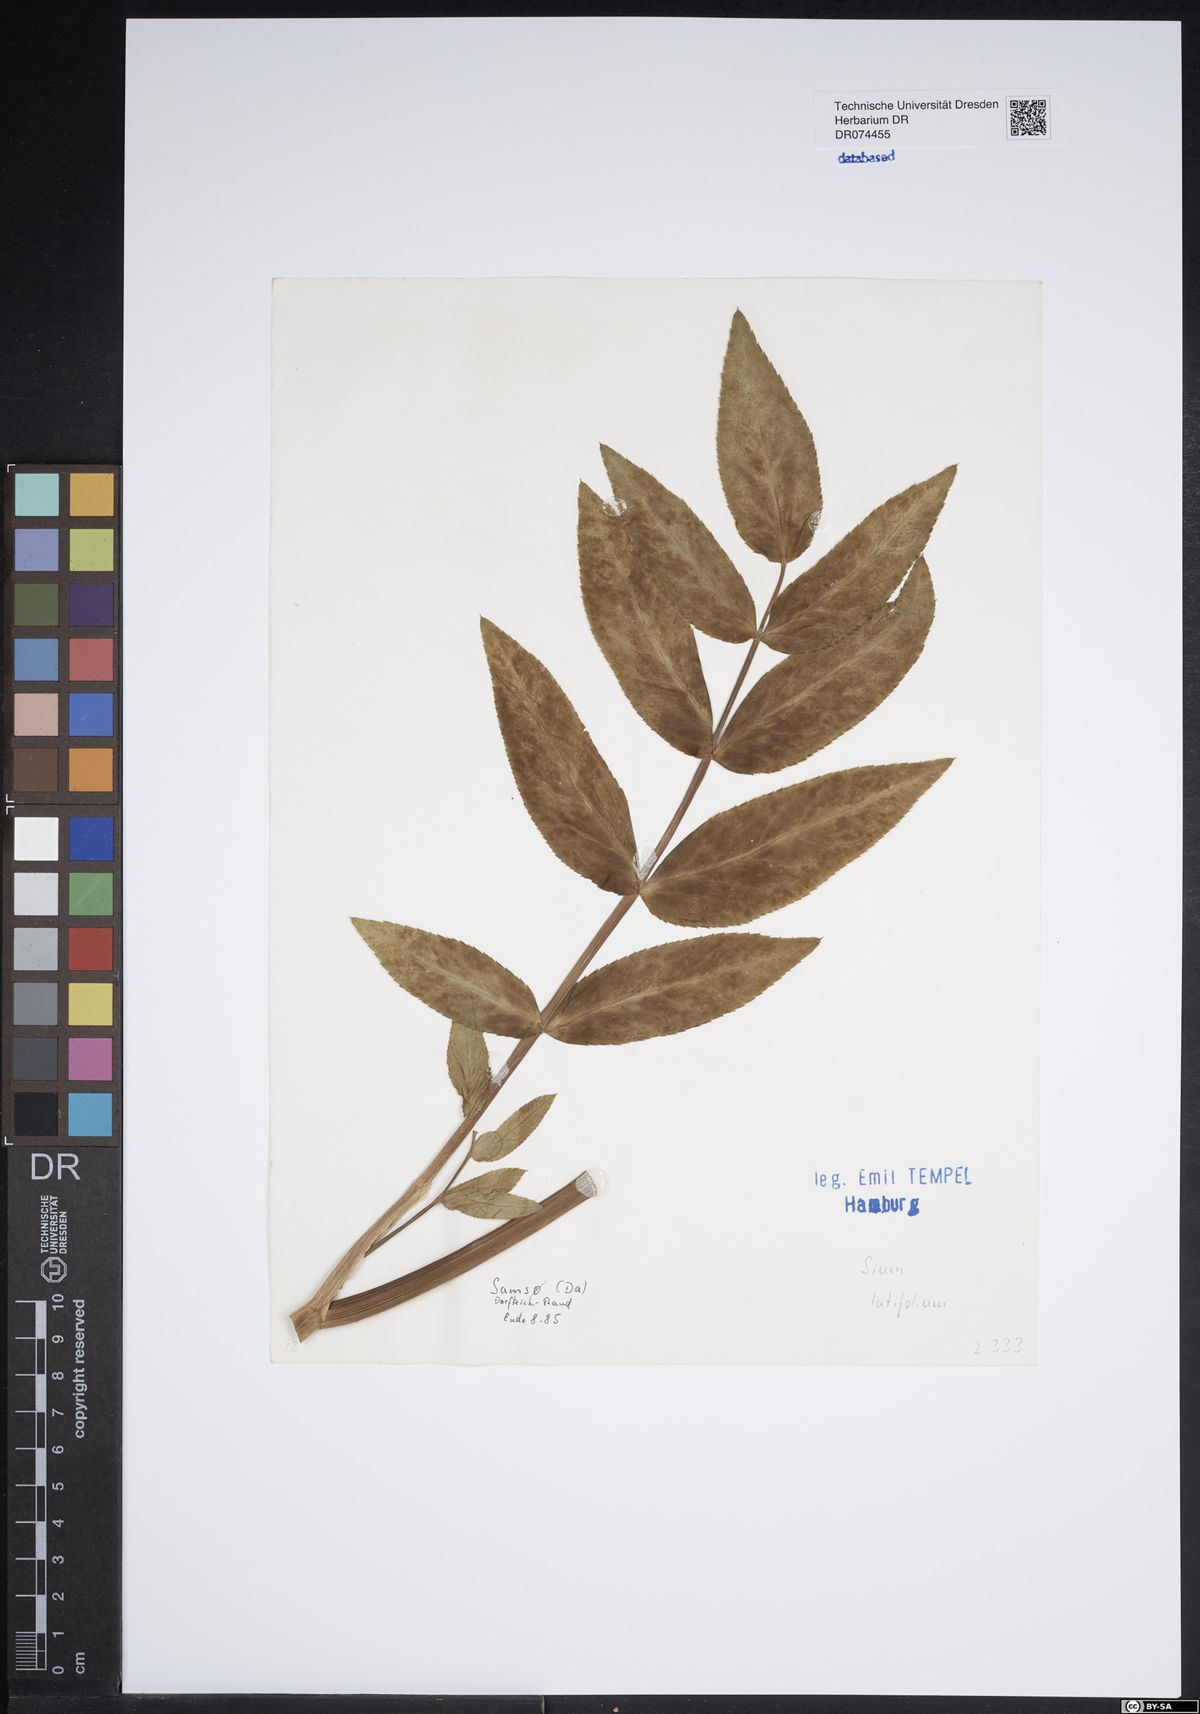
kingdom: Plantae
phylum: Tracheophyta
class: Magnoliopsida
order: Apiales
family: Apiaceae
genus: Sium
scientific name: Sium latifolium
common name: Greater water-parsnip
